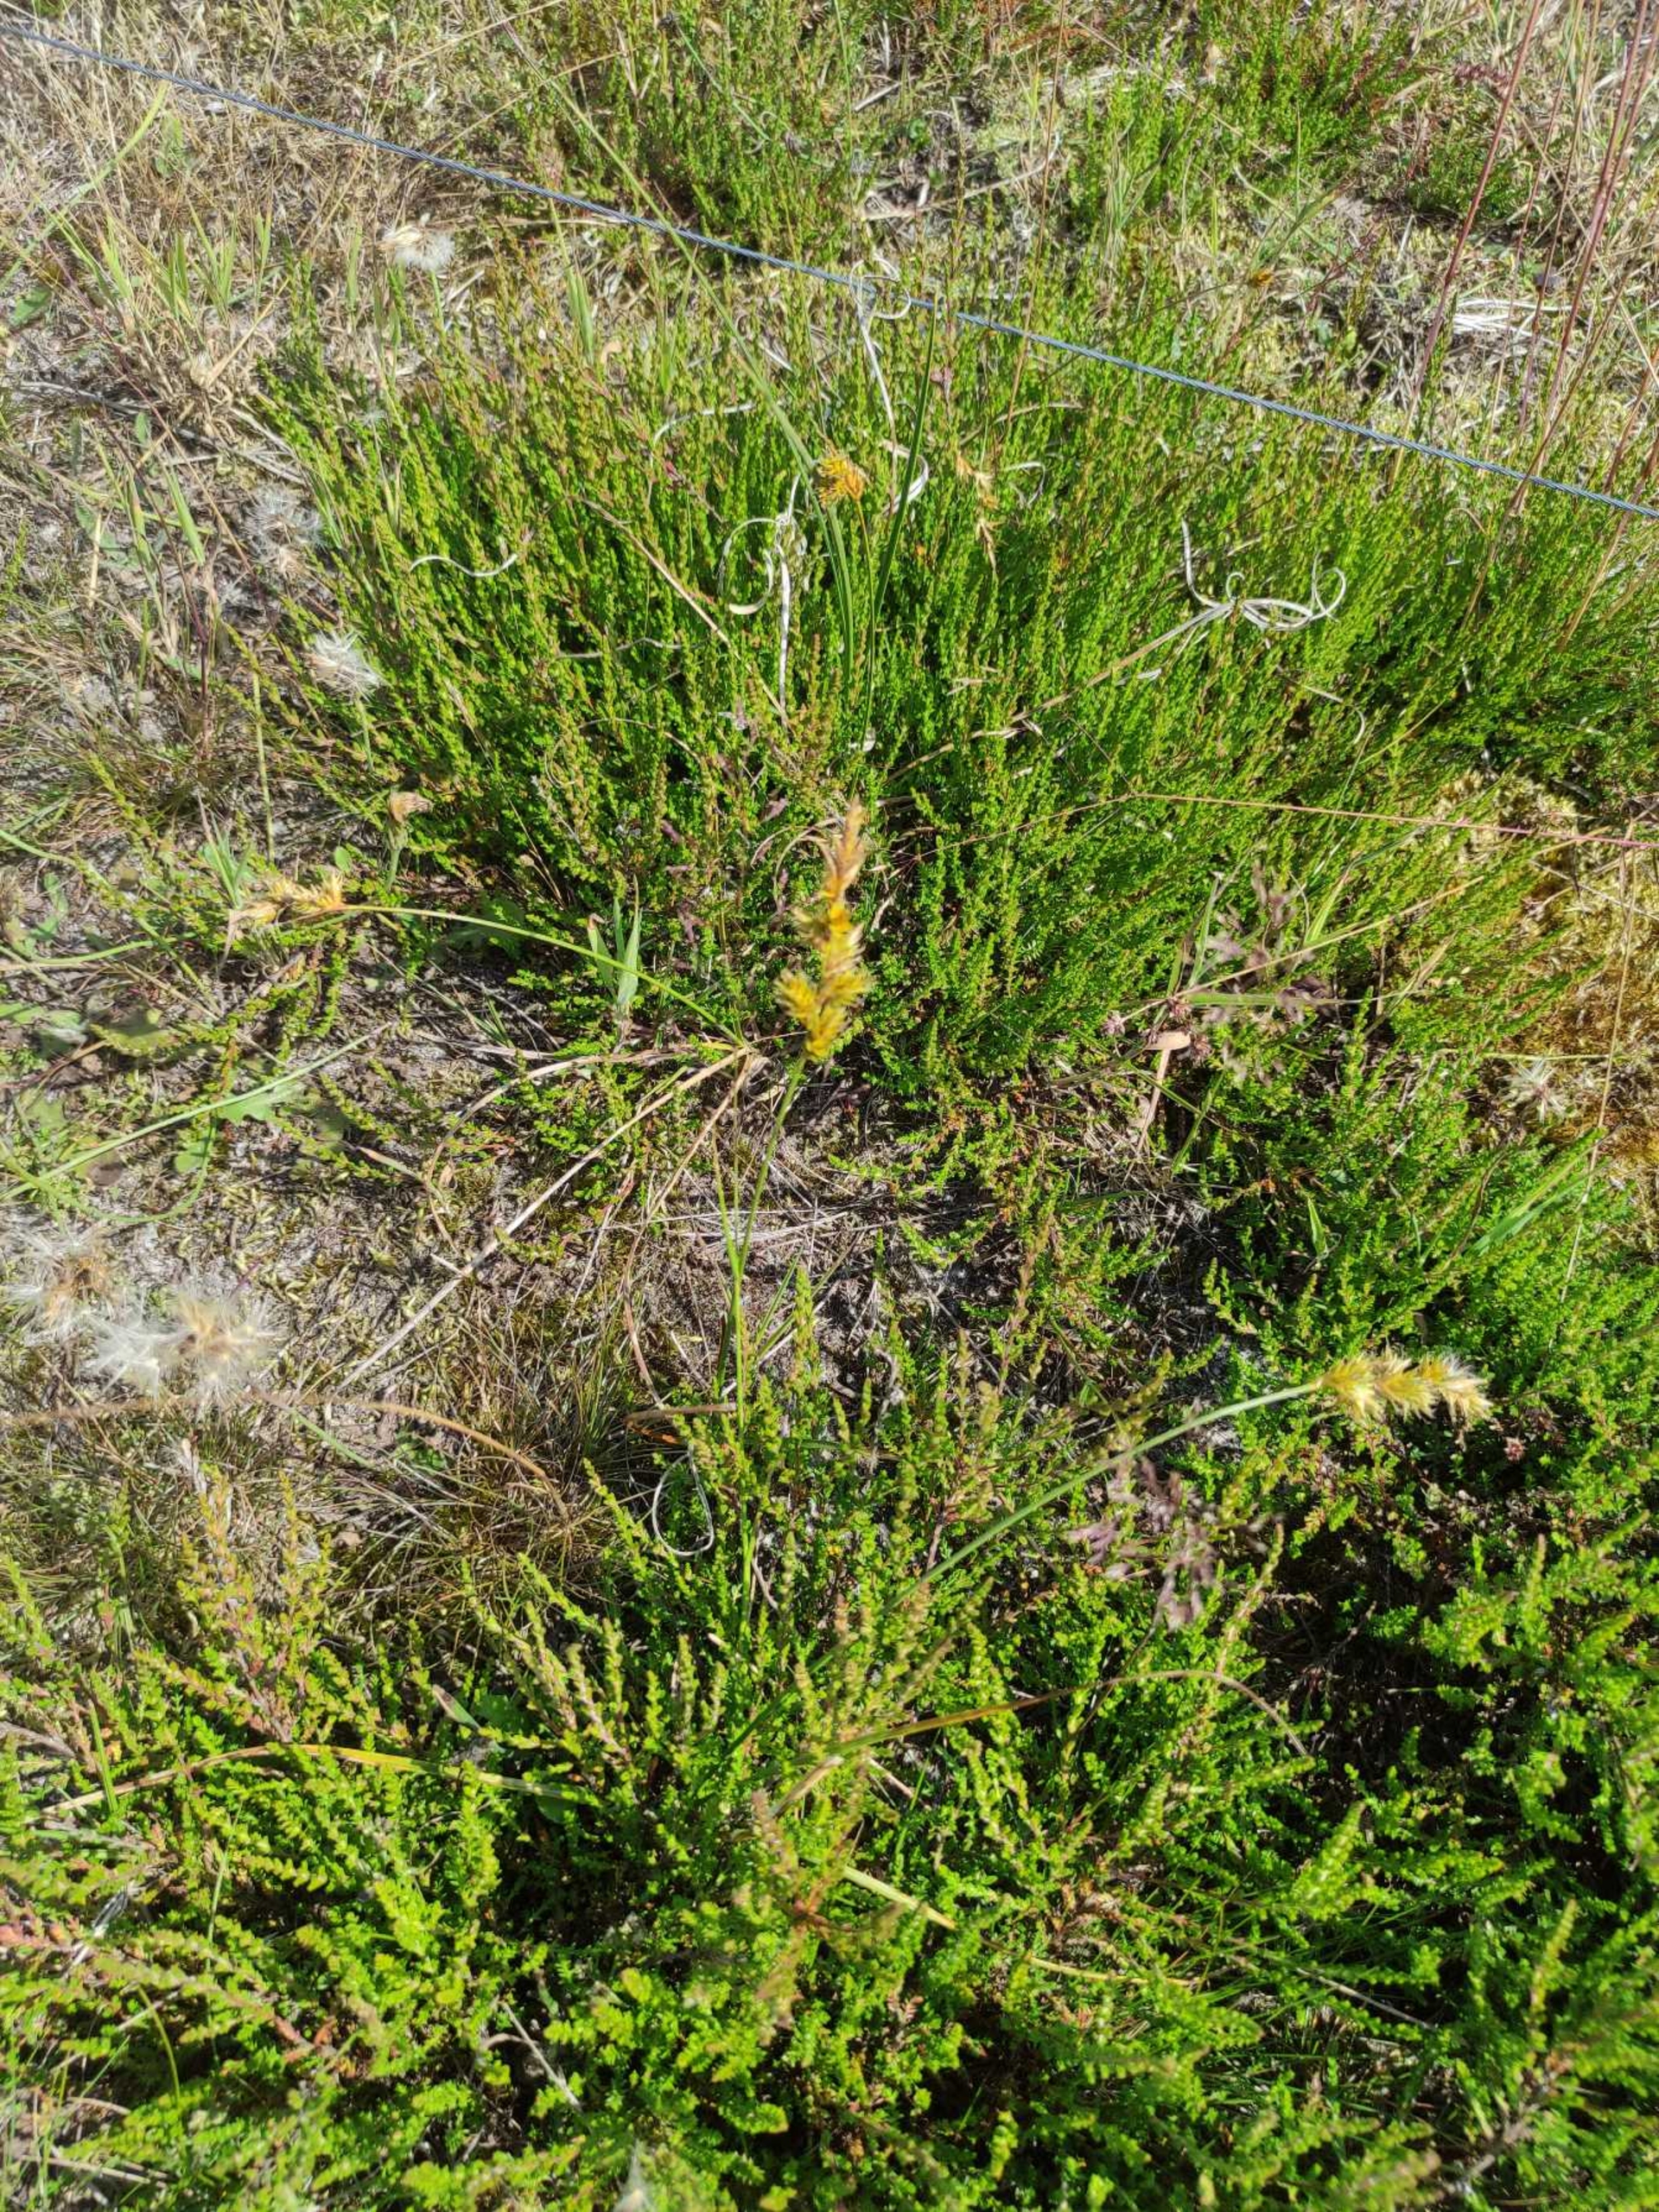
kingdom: Plantae
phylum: Tracheophyta
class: Liliopsida
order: Poales
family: Cyperaceae
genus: Carex
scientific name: Carex arenaria
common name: Sand-star
